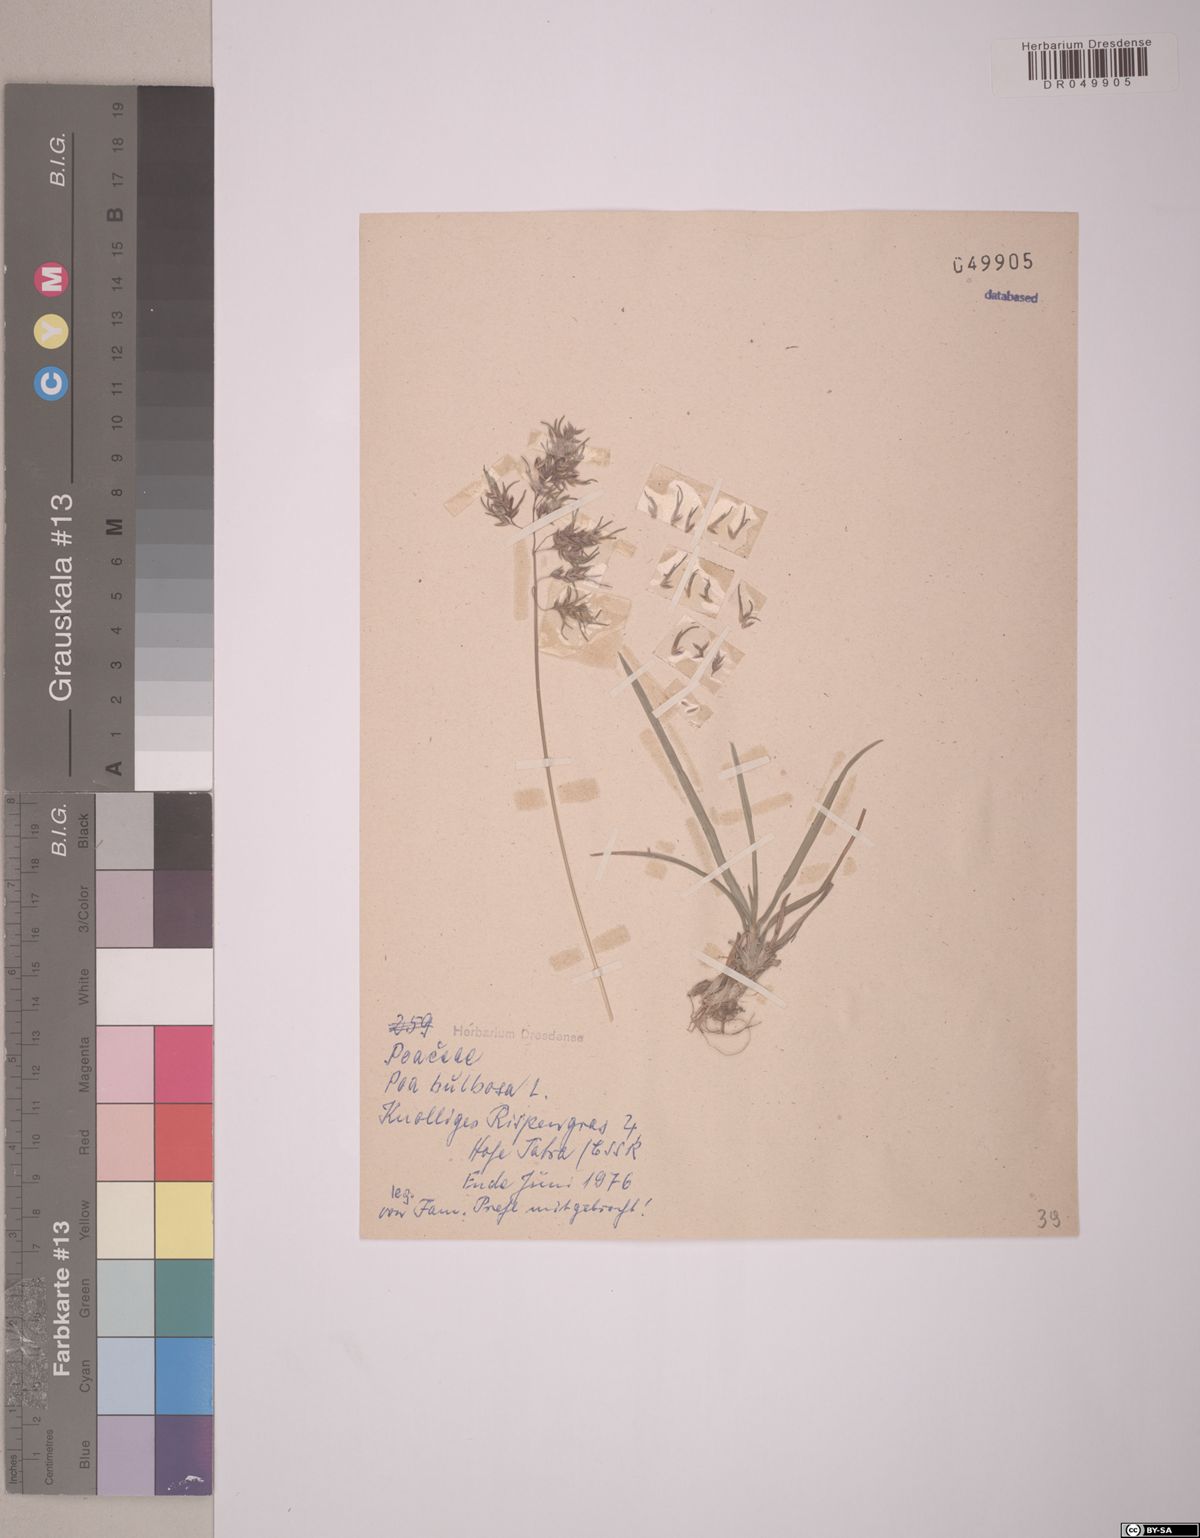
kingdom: Plantae
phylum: Tracheophyta
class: Liliopsida
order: Poales
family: Poaceae
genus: Poa
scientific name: Poa bulbosa
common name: Bulbous bluegrass
